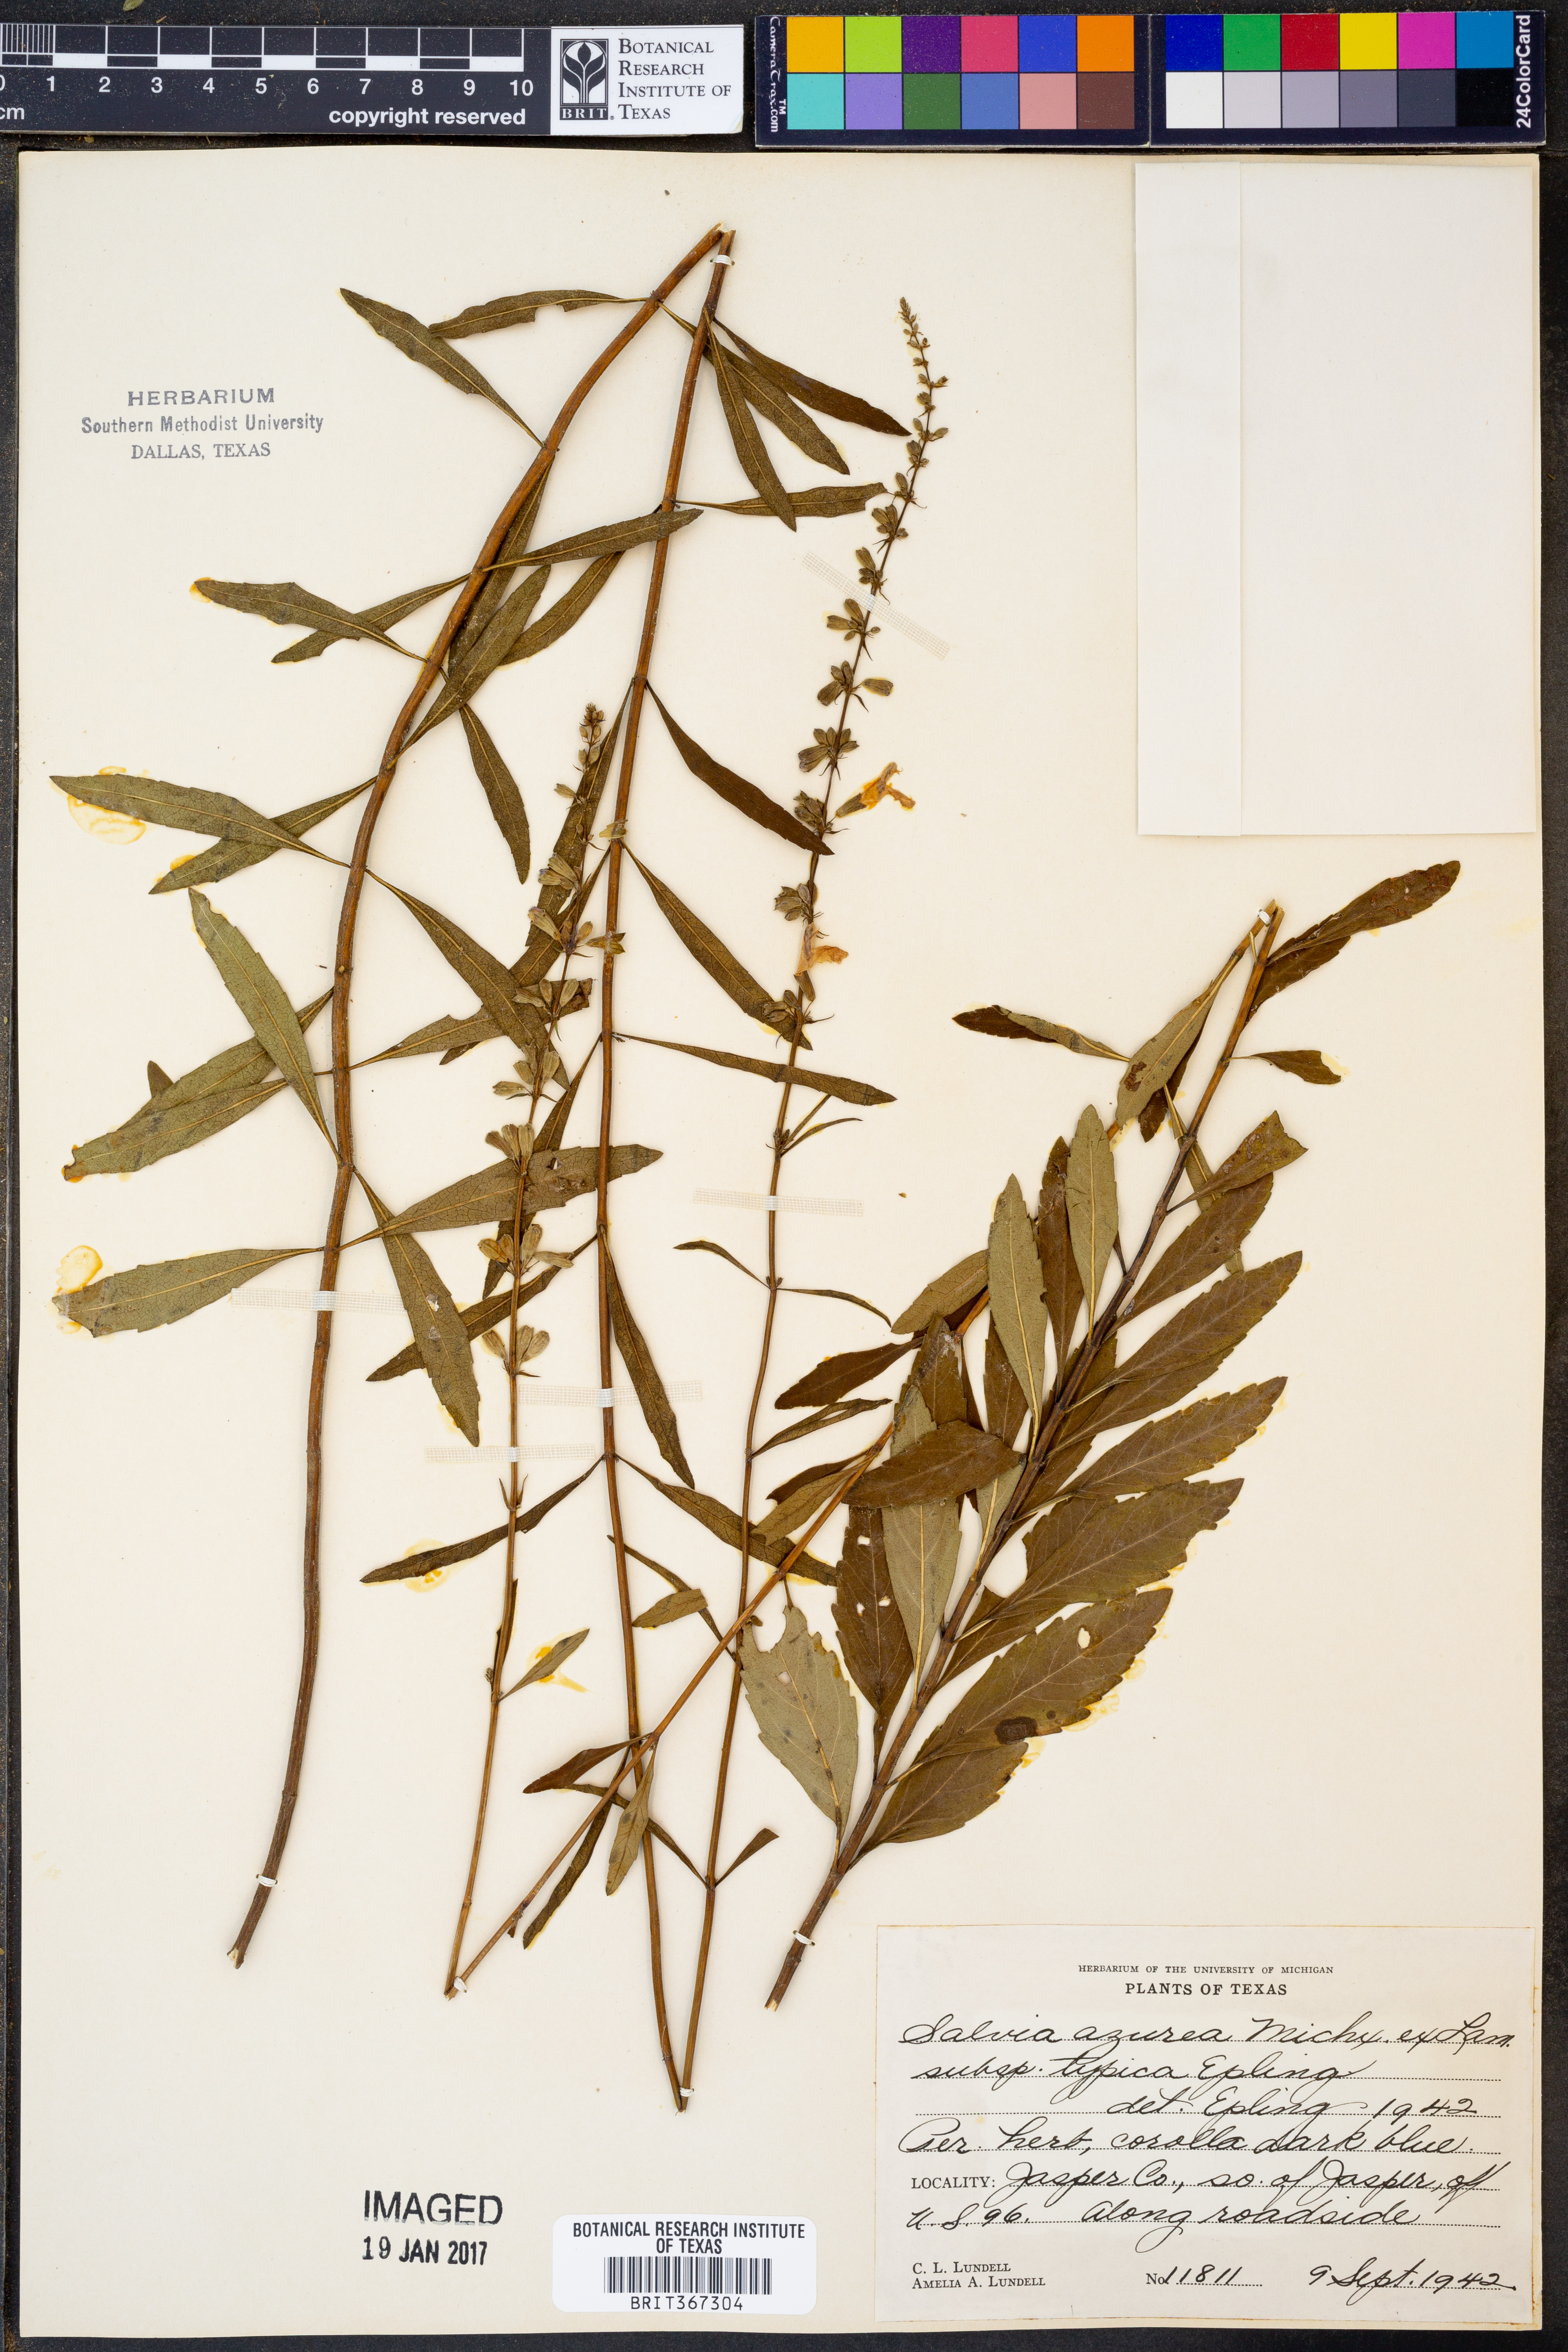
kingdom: Plantae
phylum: Tracheophyta
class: Magnoliopsida
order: Lamiales
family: Lamiaceae
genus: Salvia
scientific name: Salvia azurea
